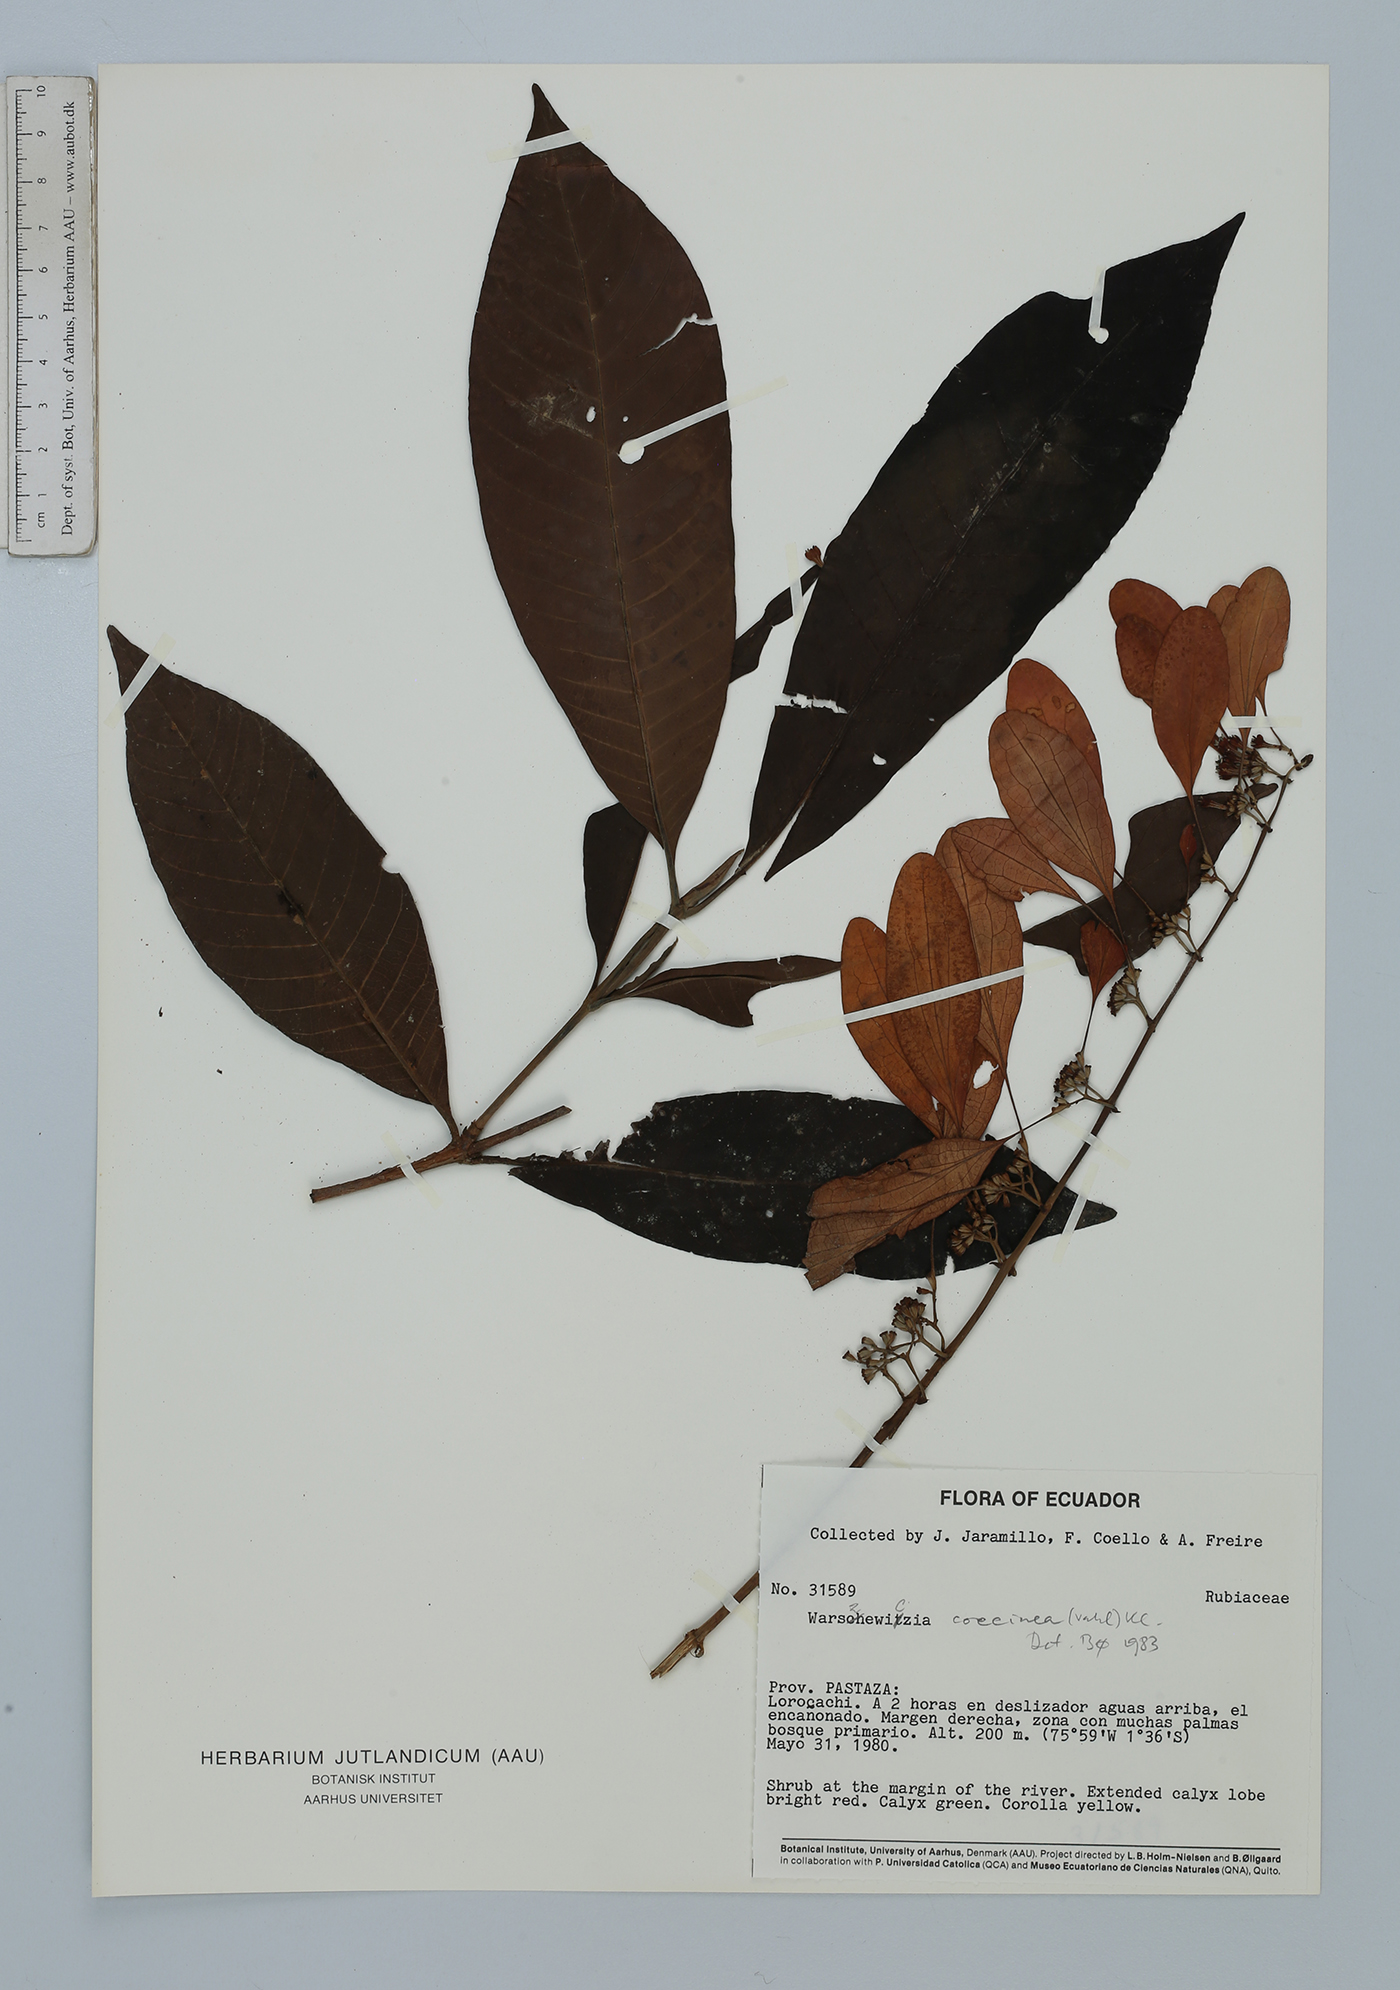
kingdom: Plantae
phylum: Tracheophyta
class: Magnoliopsida
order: Gentianales
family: Rubiaceae
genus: Warszewiczia
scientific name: Warszewiczia coccinea
